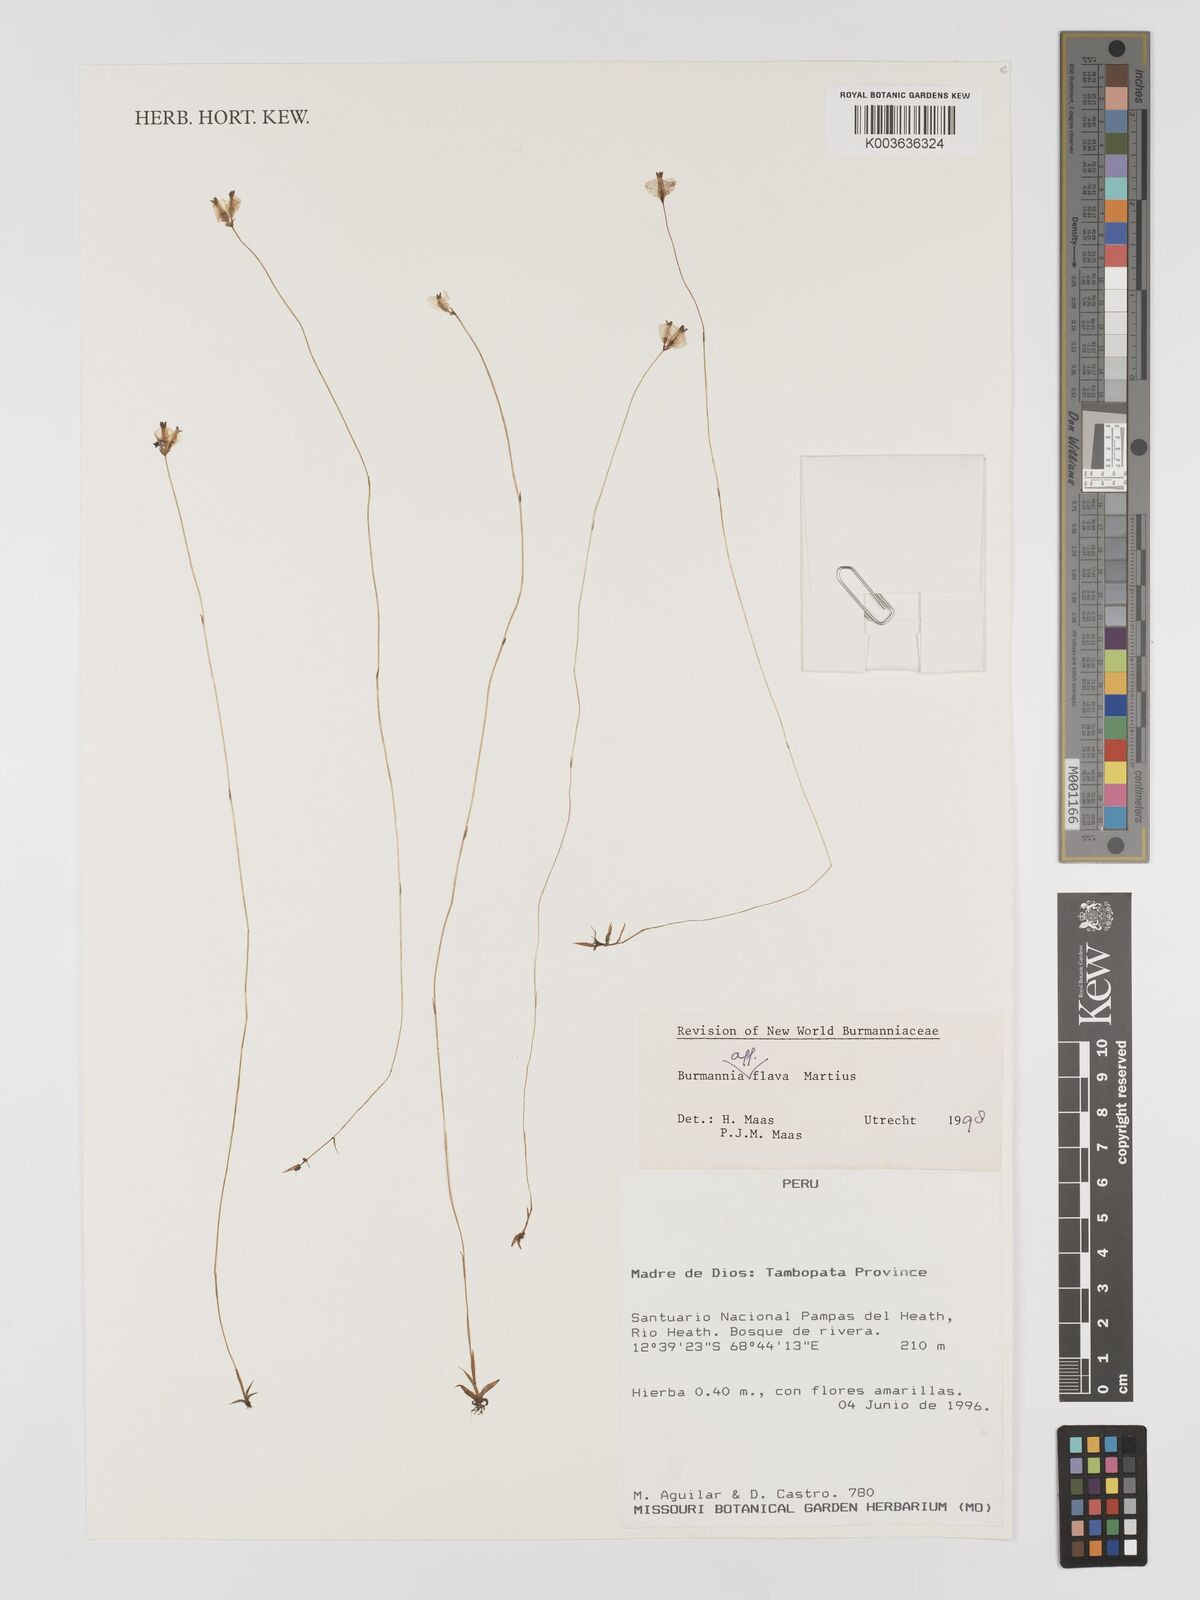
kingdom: Plantae
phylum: Tracheophyta
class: Liliopsida
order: Dioscoreales
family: Burmanniaceae
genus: Burmannia
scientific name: Burmannia flava
